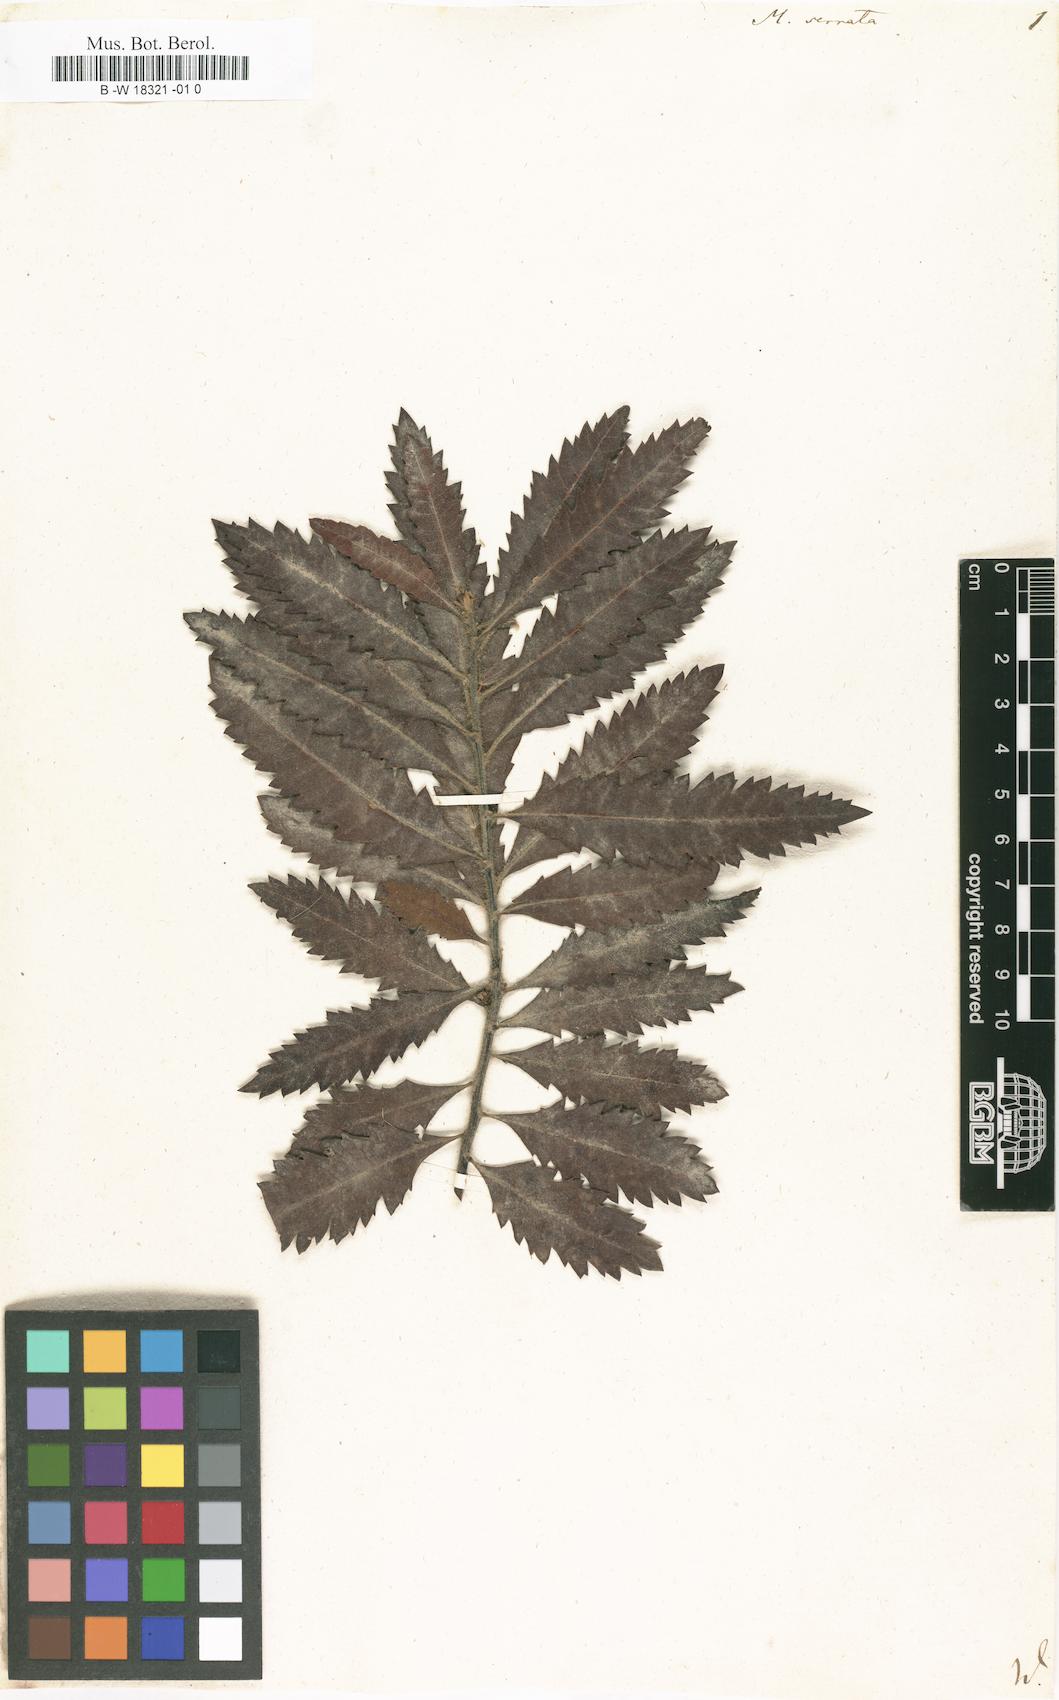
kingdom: Plantae
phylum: Tracheophyta
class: Magnoliopsida
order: Fagales
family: Myricaceae
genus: Morella
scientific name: Morella serrata
